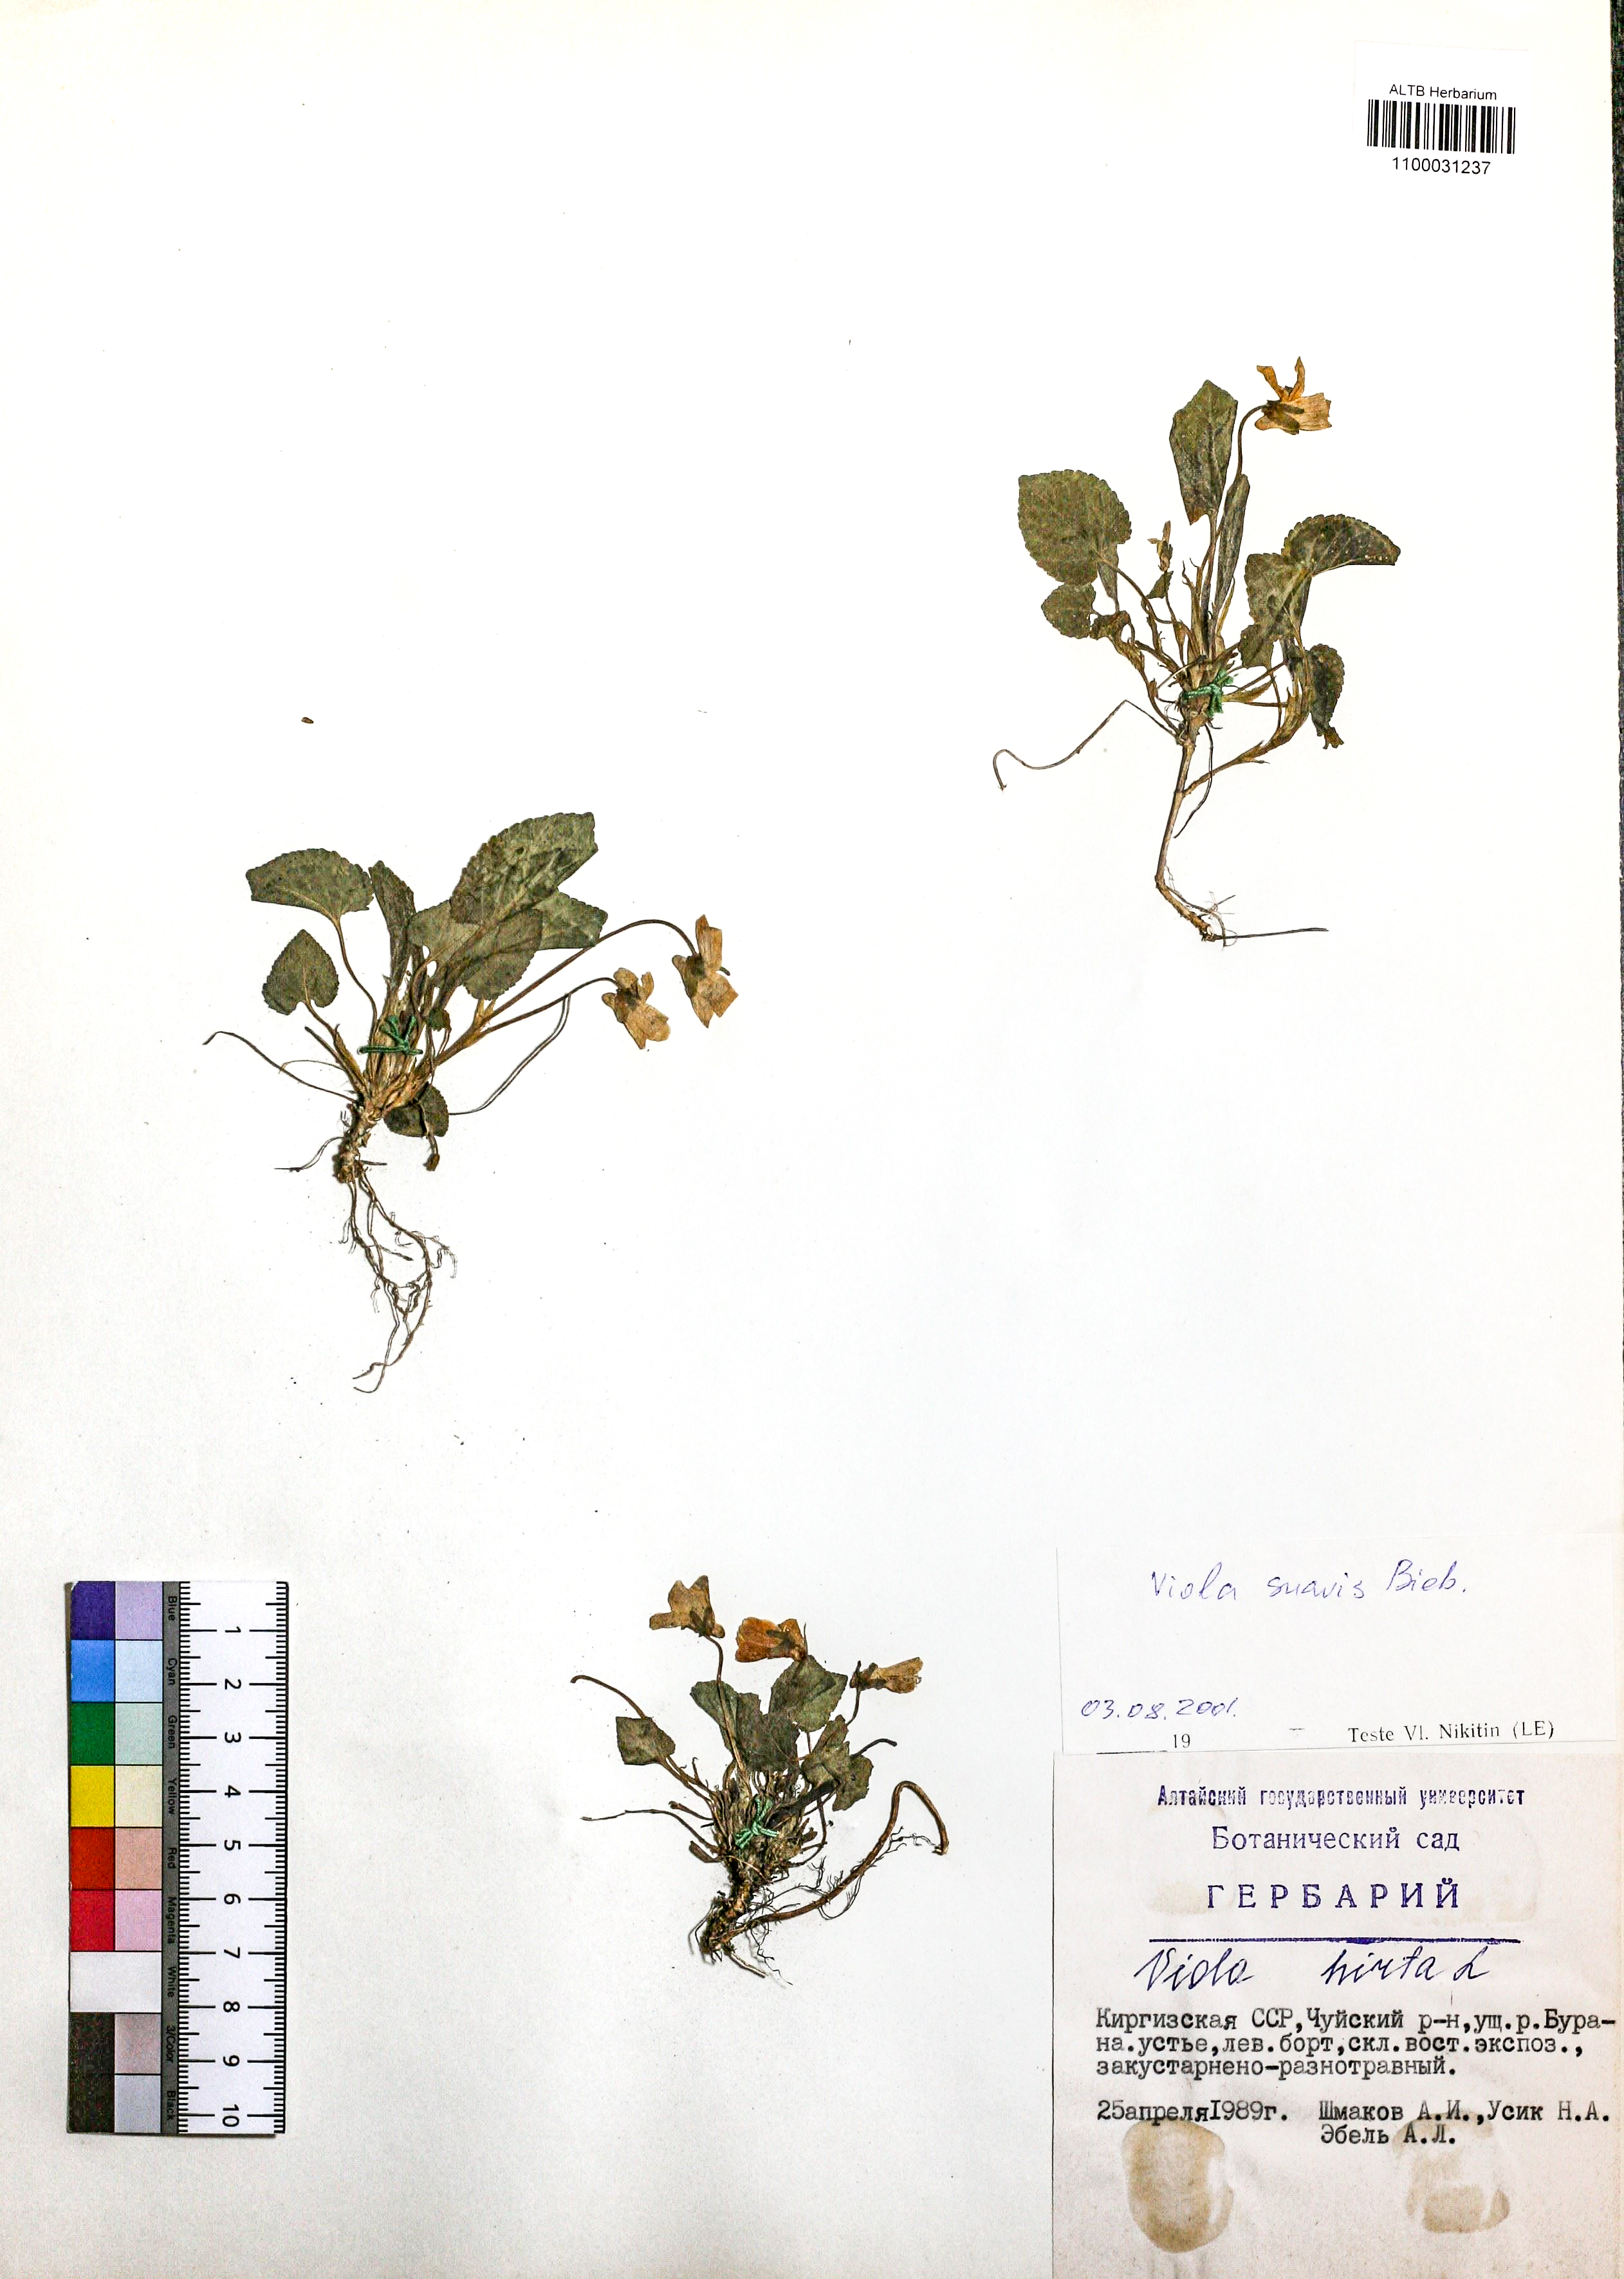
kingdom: Plantae
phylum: Tracheophyta
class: Magnoliopsida
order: Malpighiales
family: Violaceae
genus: Viola
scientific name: Viola suavis
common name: Russian violet
